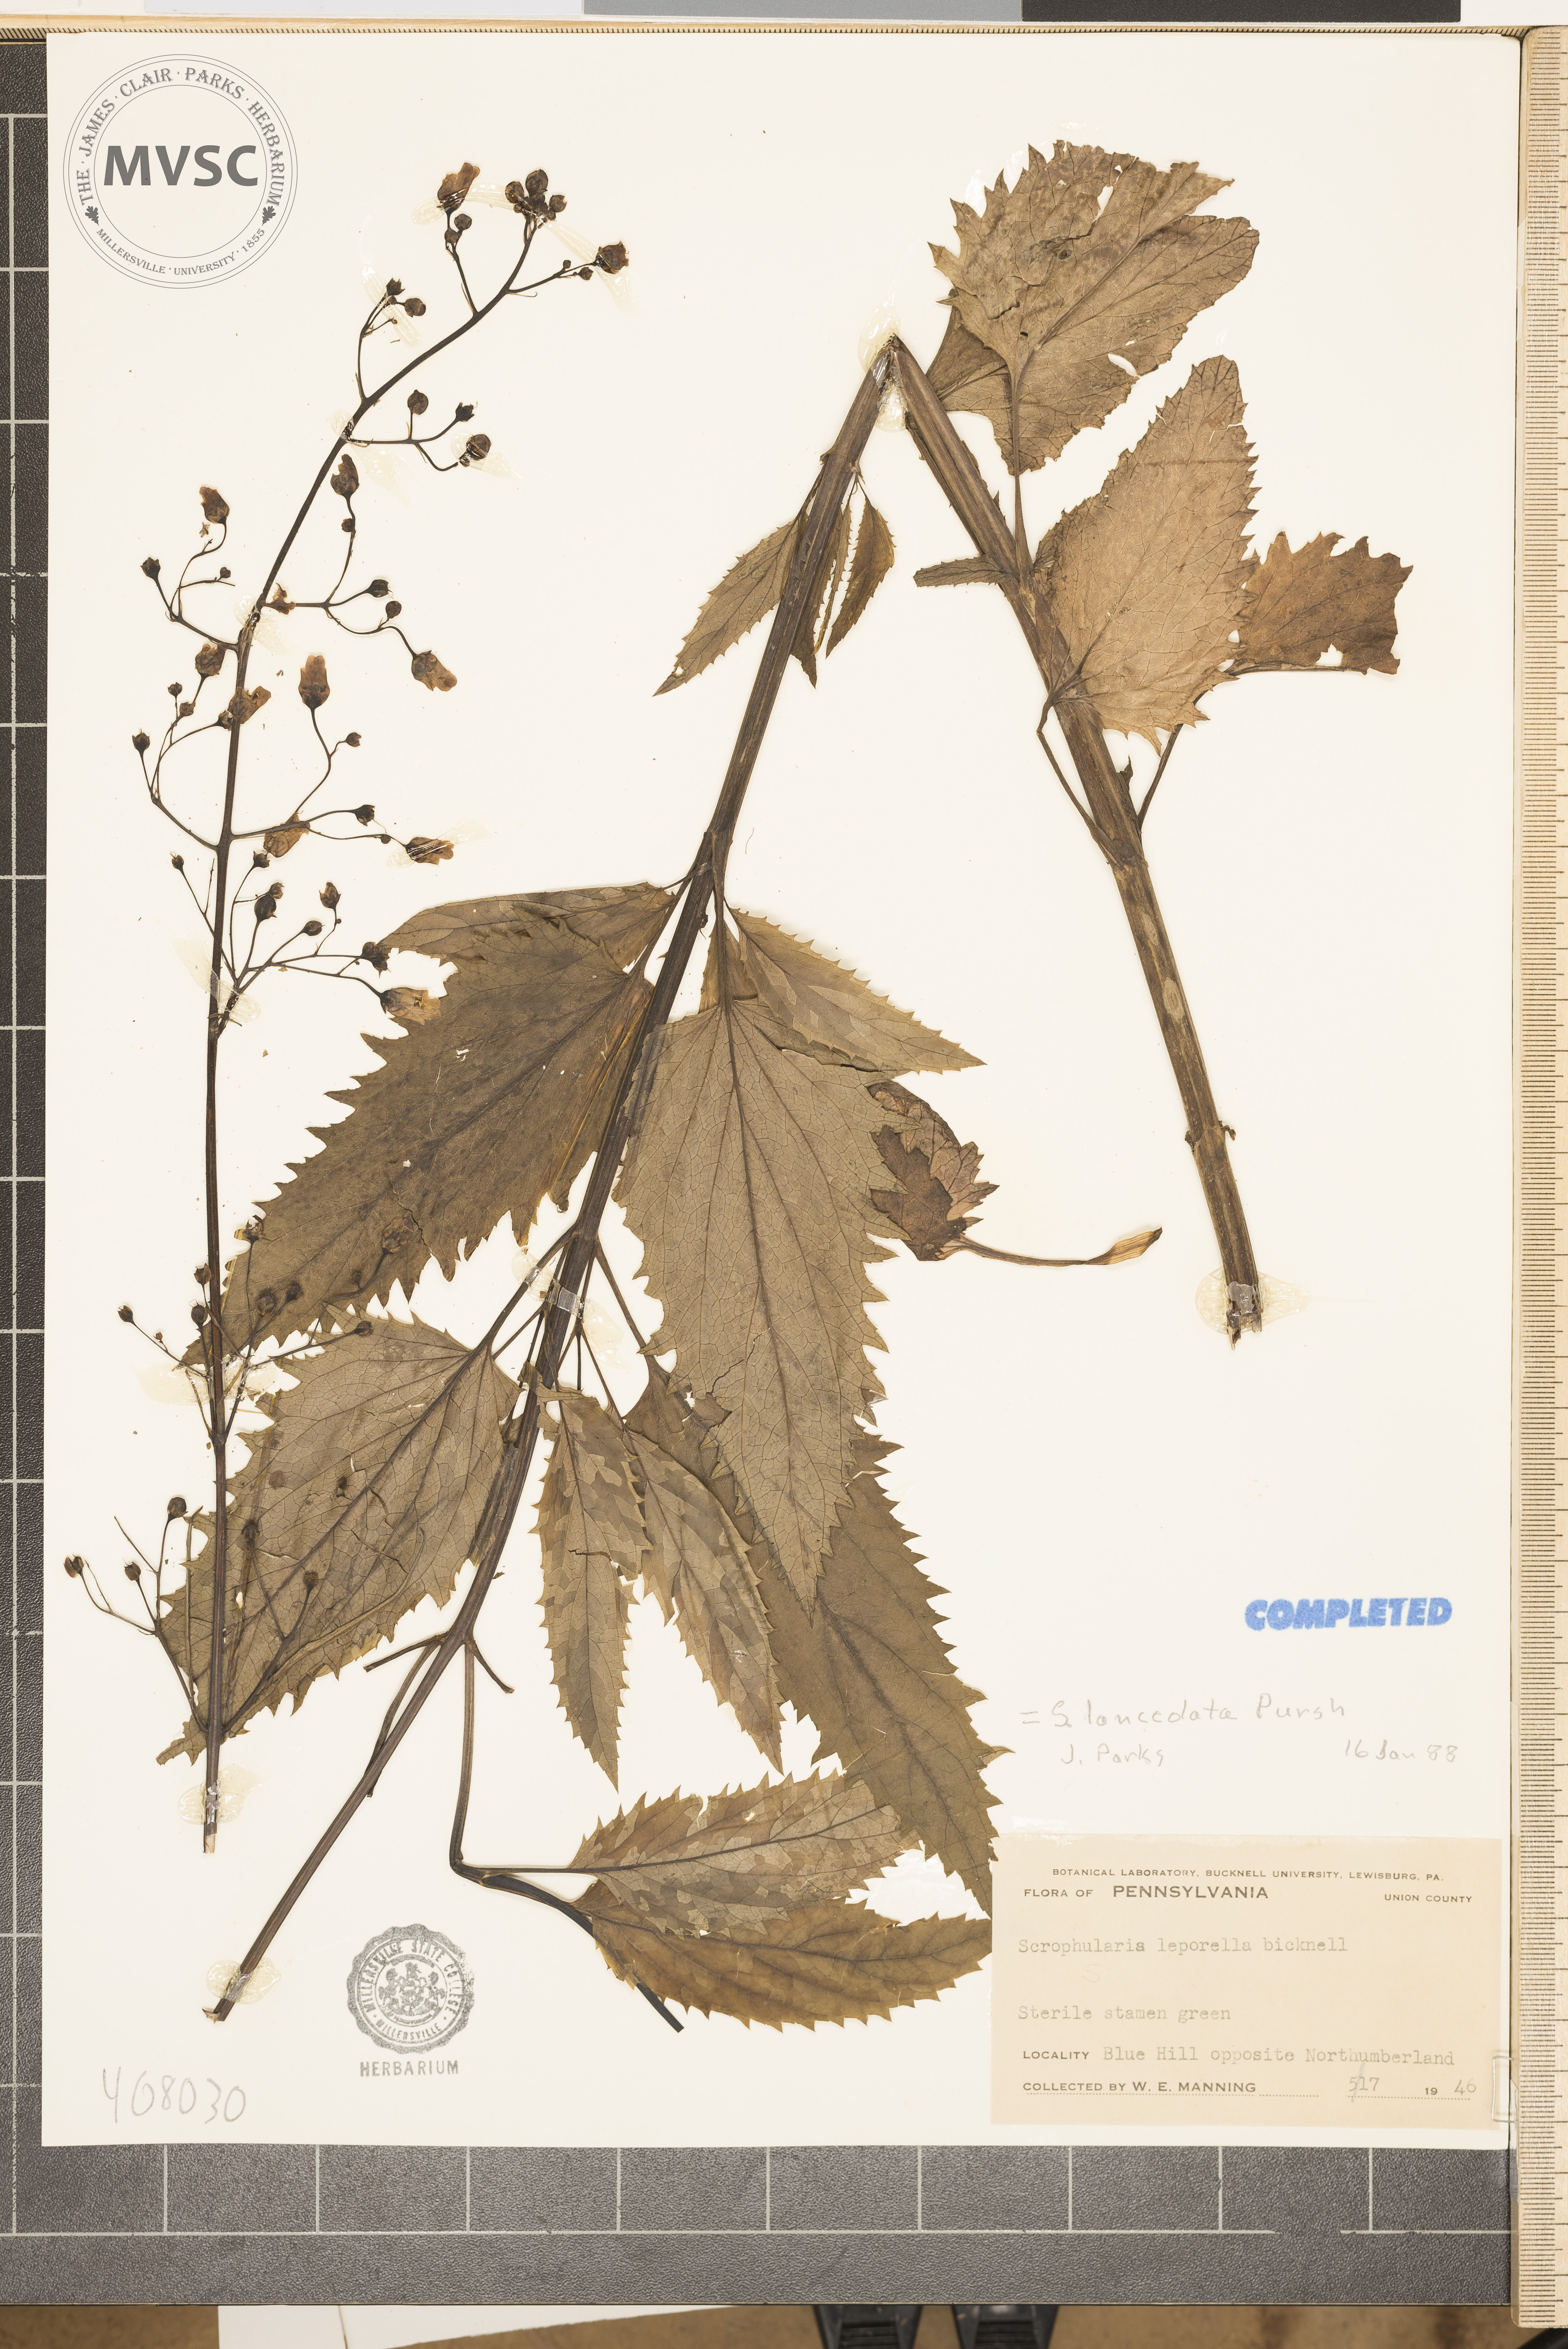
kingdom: Plantae
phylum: Tracheophyta
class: Magnoliopsida
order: Lamiales
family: Scrophulariaceae
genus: Scrophularia
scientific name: Scrophularia lanceolata
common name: American figwort
